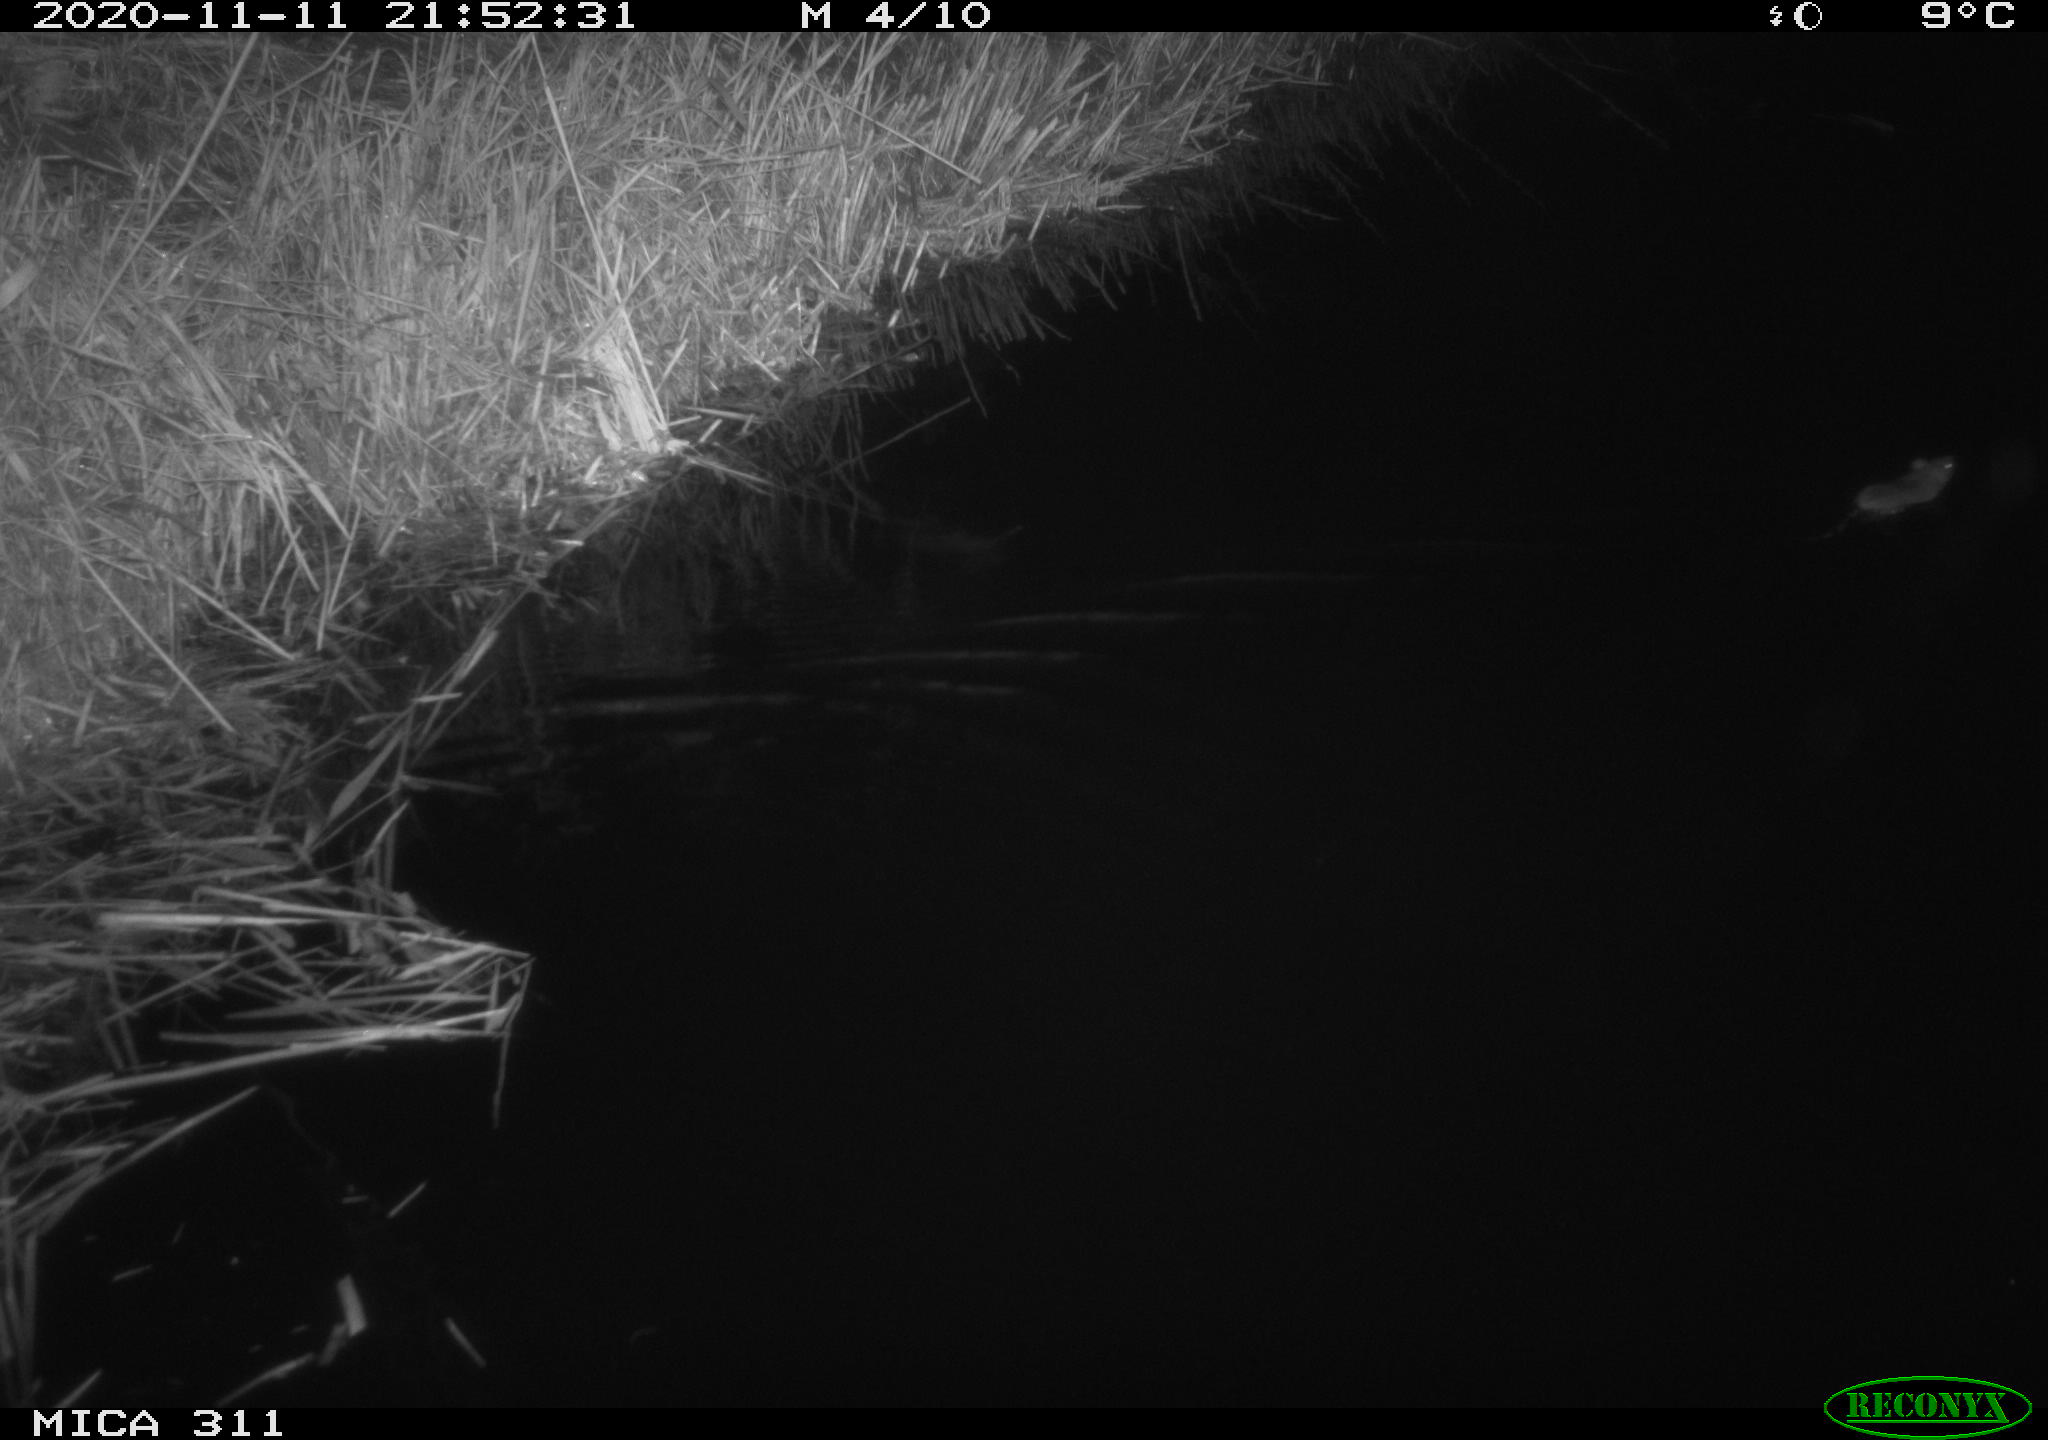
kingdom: Animalia
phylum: Chordata
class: Mammalia
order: Rodentia
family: Muridae
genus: Rattus
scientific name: Rattus norvegicus
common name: Brown rat
